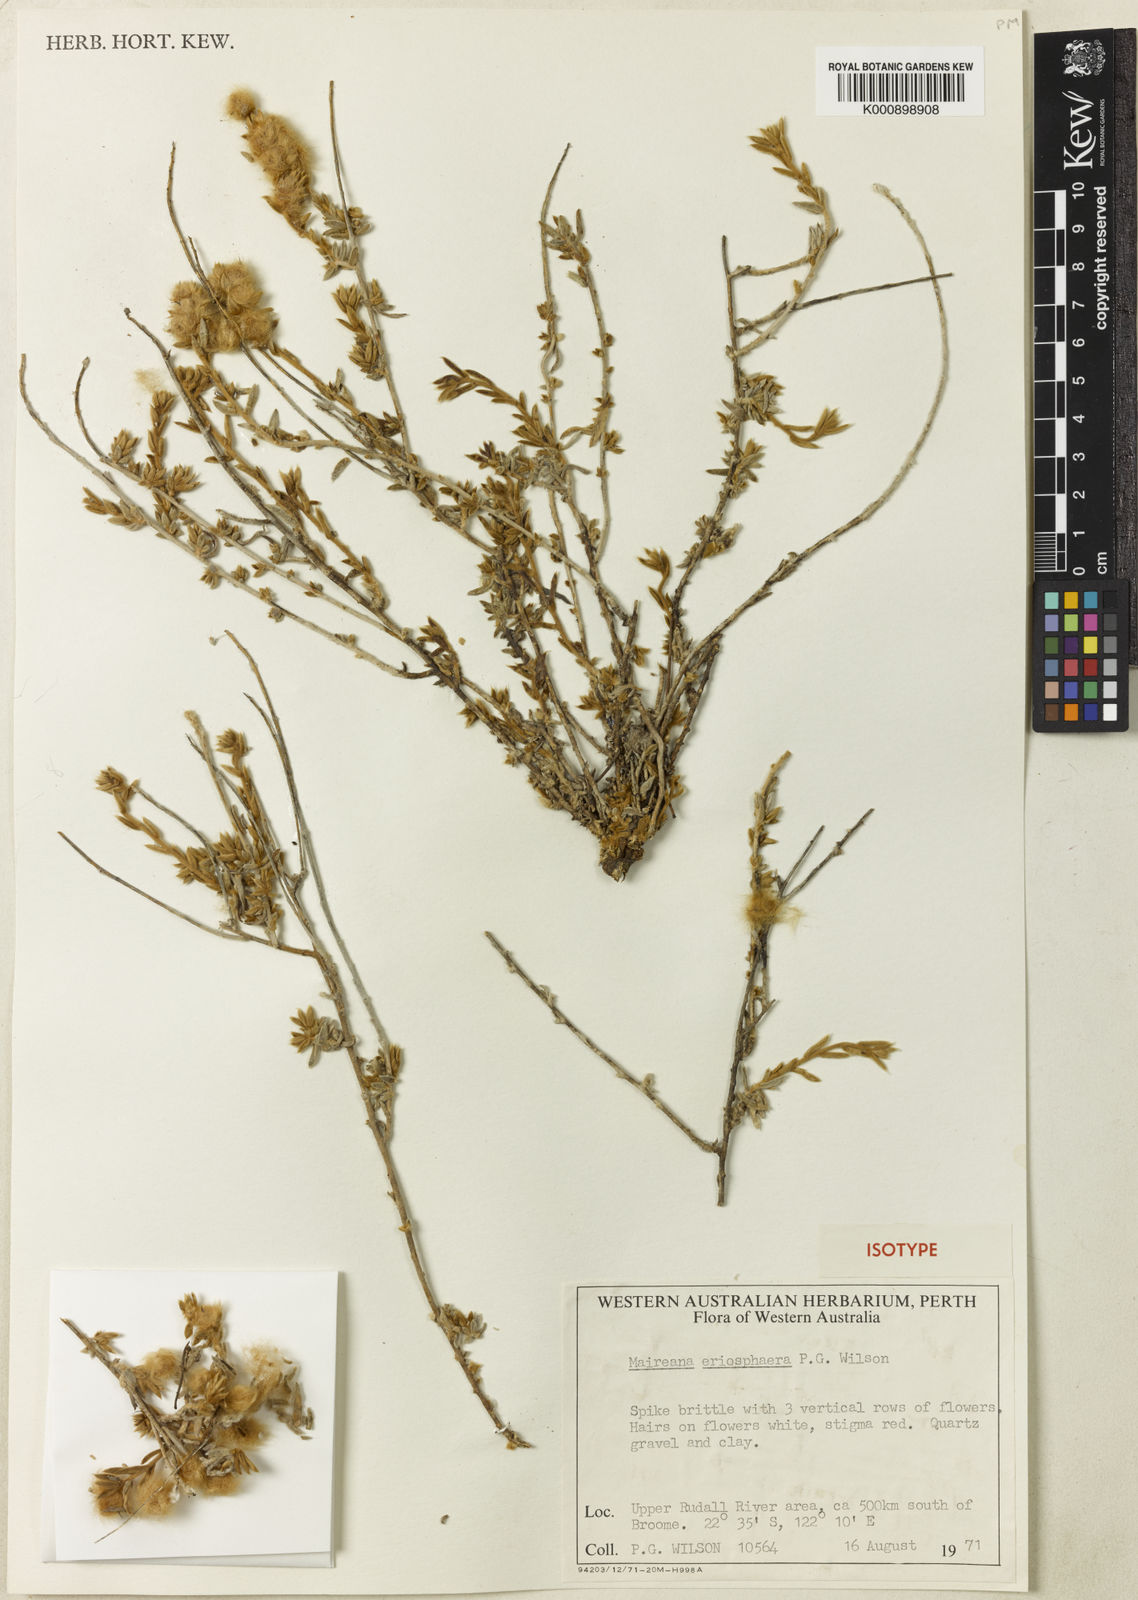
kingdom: Plantae
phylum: Tracheophyta
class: Magnoliopsida
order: Caryophyllales
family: Amaranthaceae
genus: Maireana
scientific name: Maireana eriosphaera
